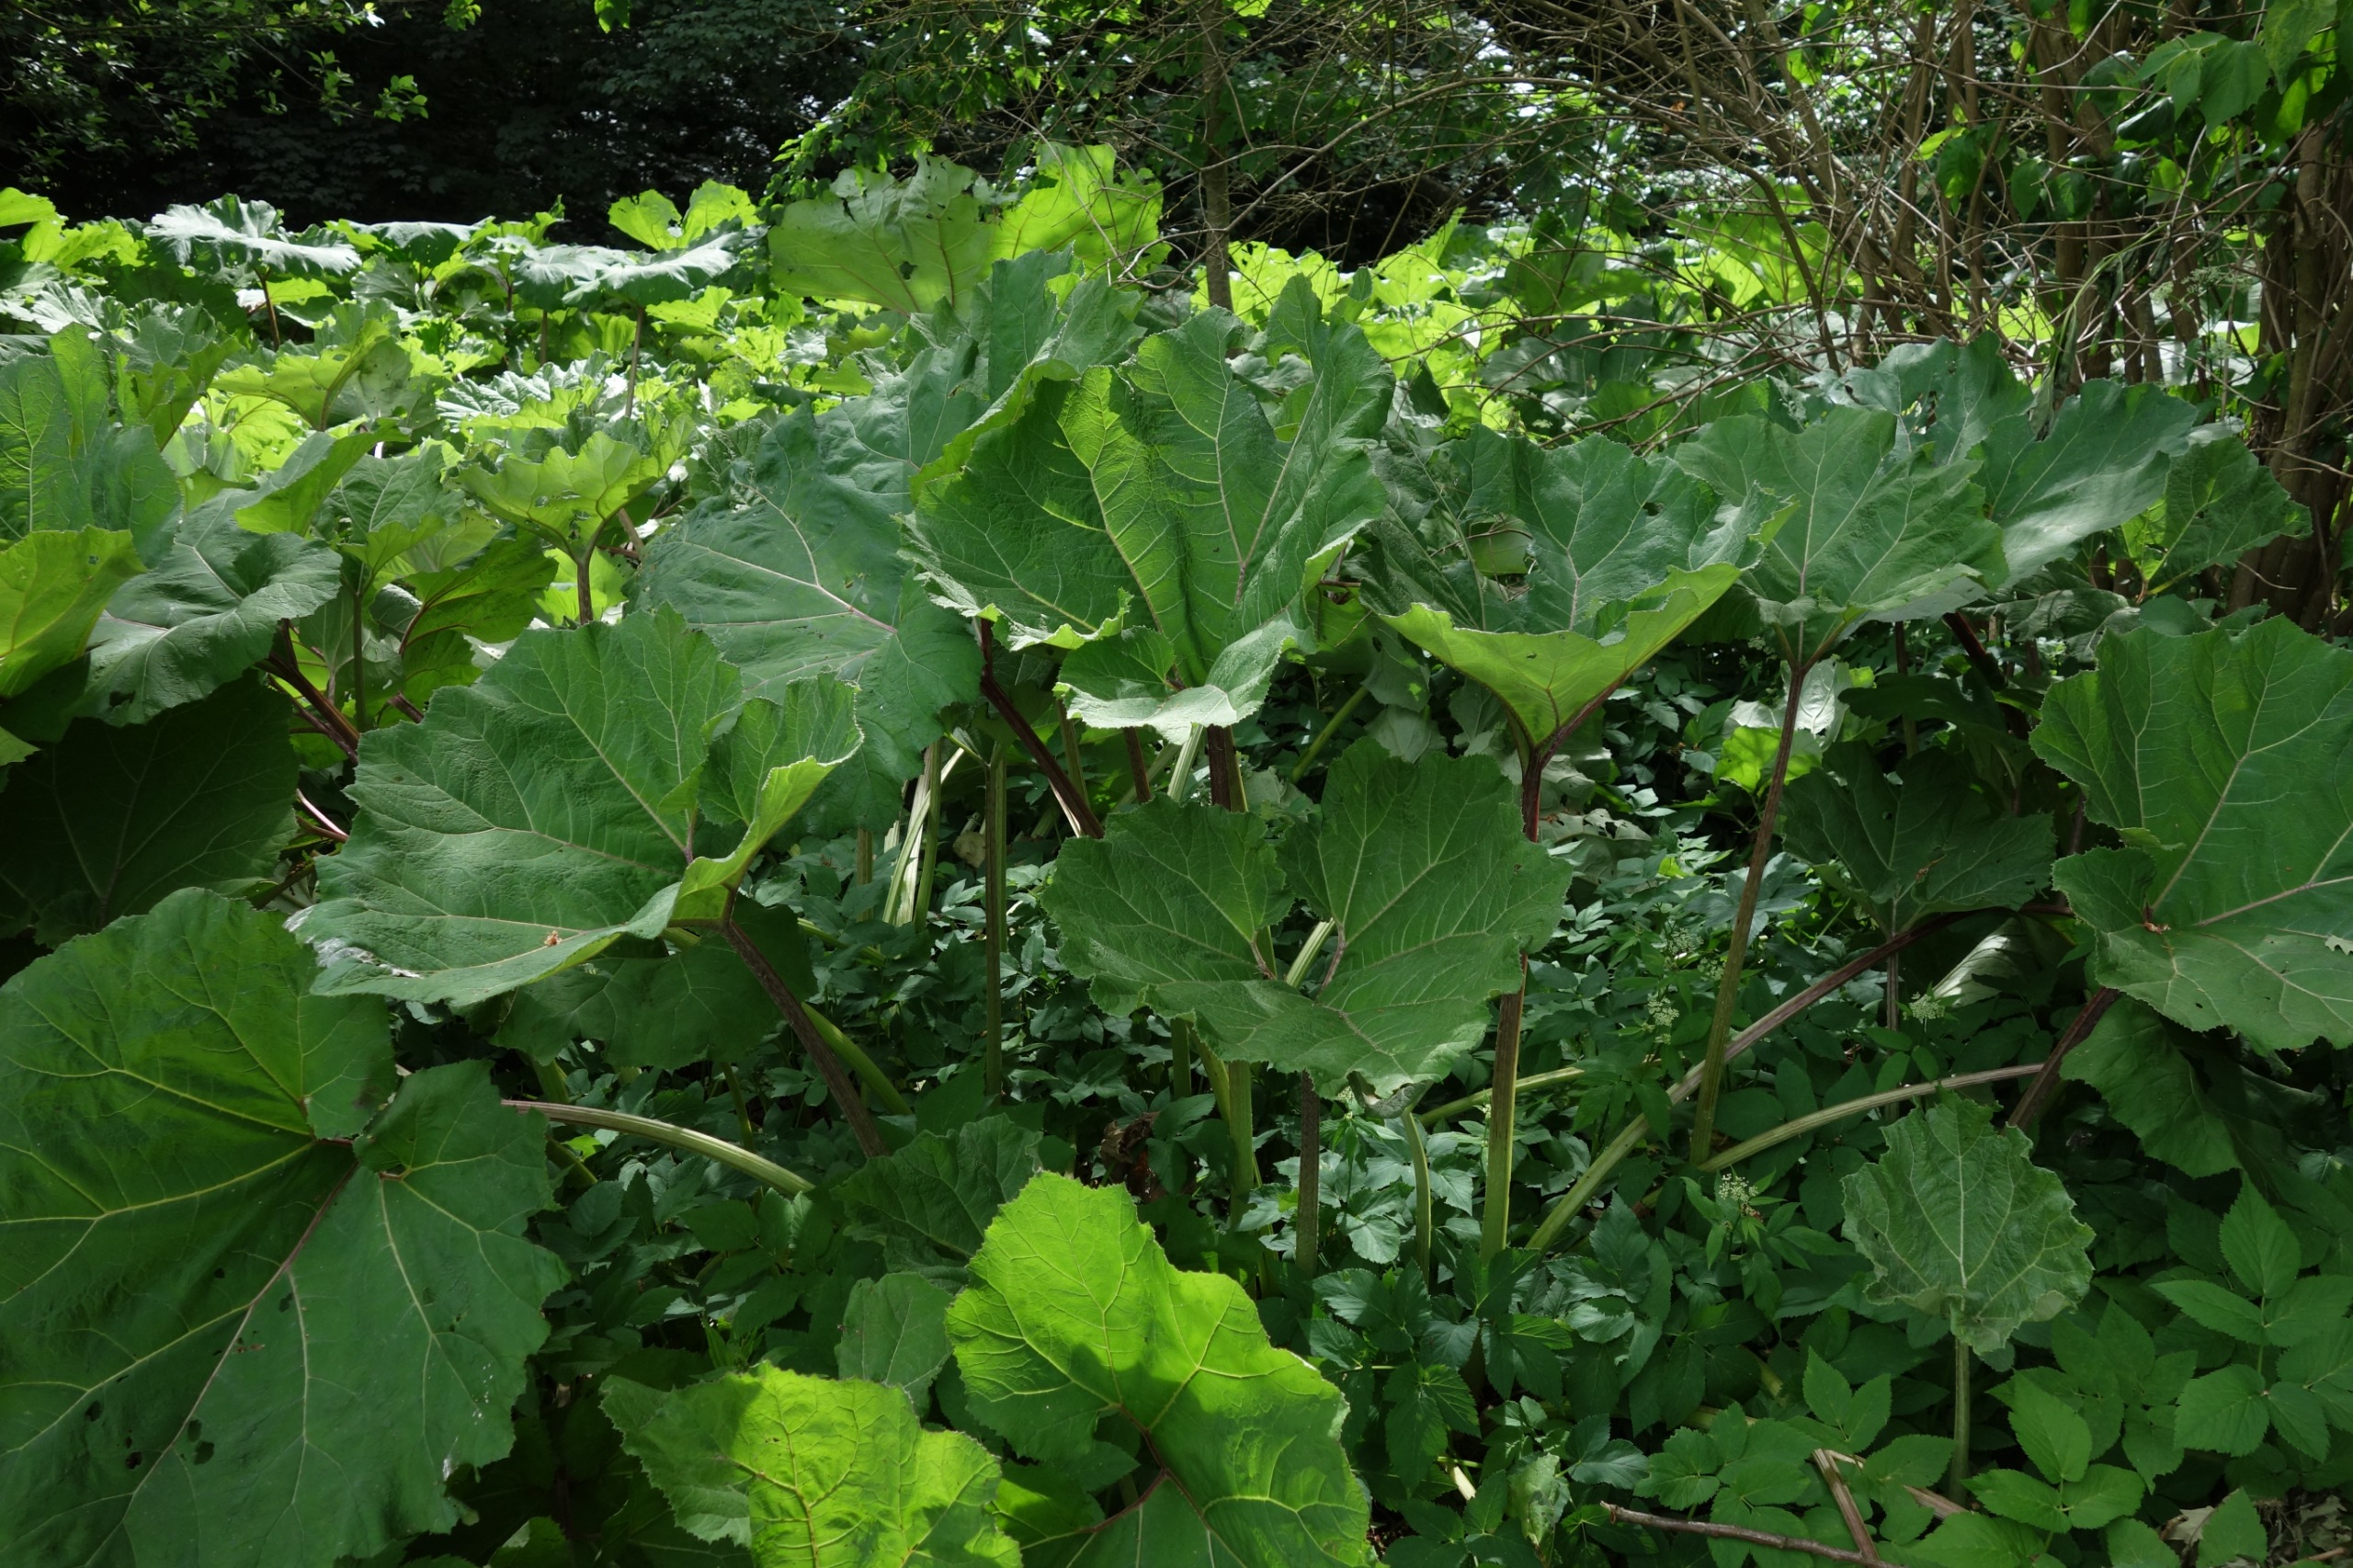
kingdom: Plantae
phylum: Tracheophyta
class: Magnoliopsida
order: Asterales
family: Asteraceae
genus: Petasites
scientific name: Petasites hybridus
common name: Rød hestehov
